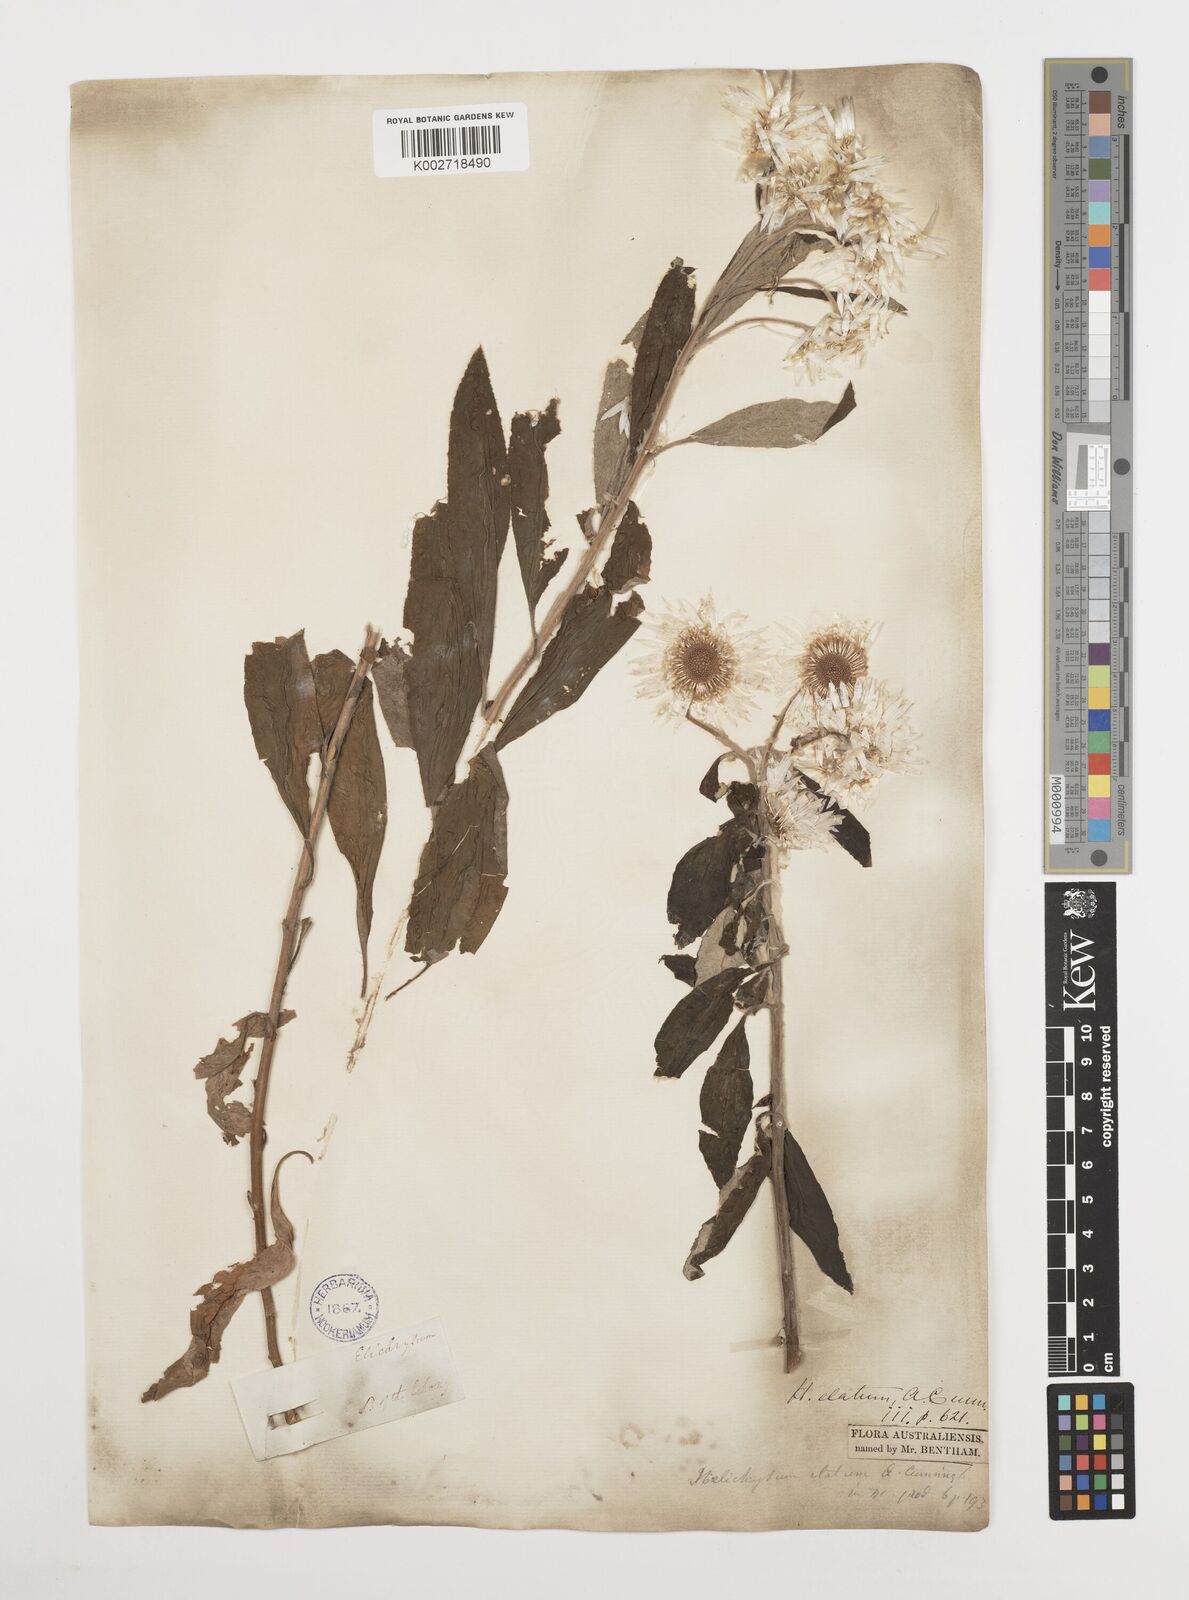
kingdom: Plantae
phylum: Tracheophyta
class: Magnoliopsida
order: Asterales
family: Asteraceae
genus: Leucozoma
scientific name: Leucozoma elatum
